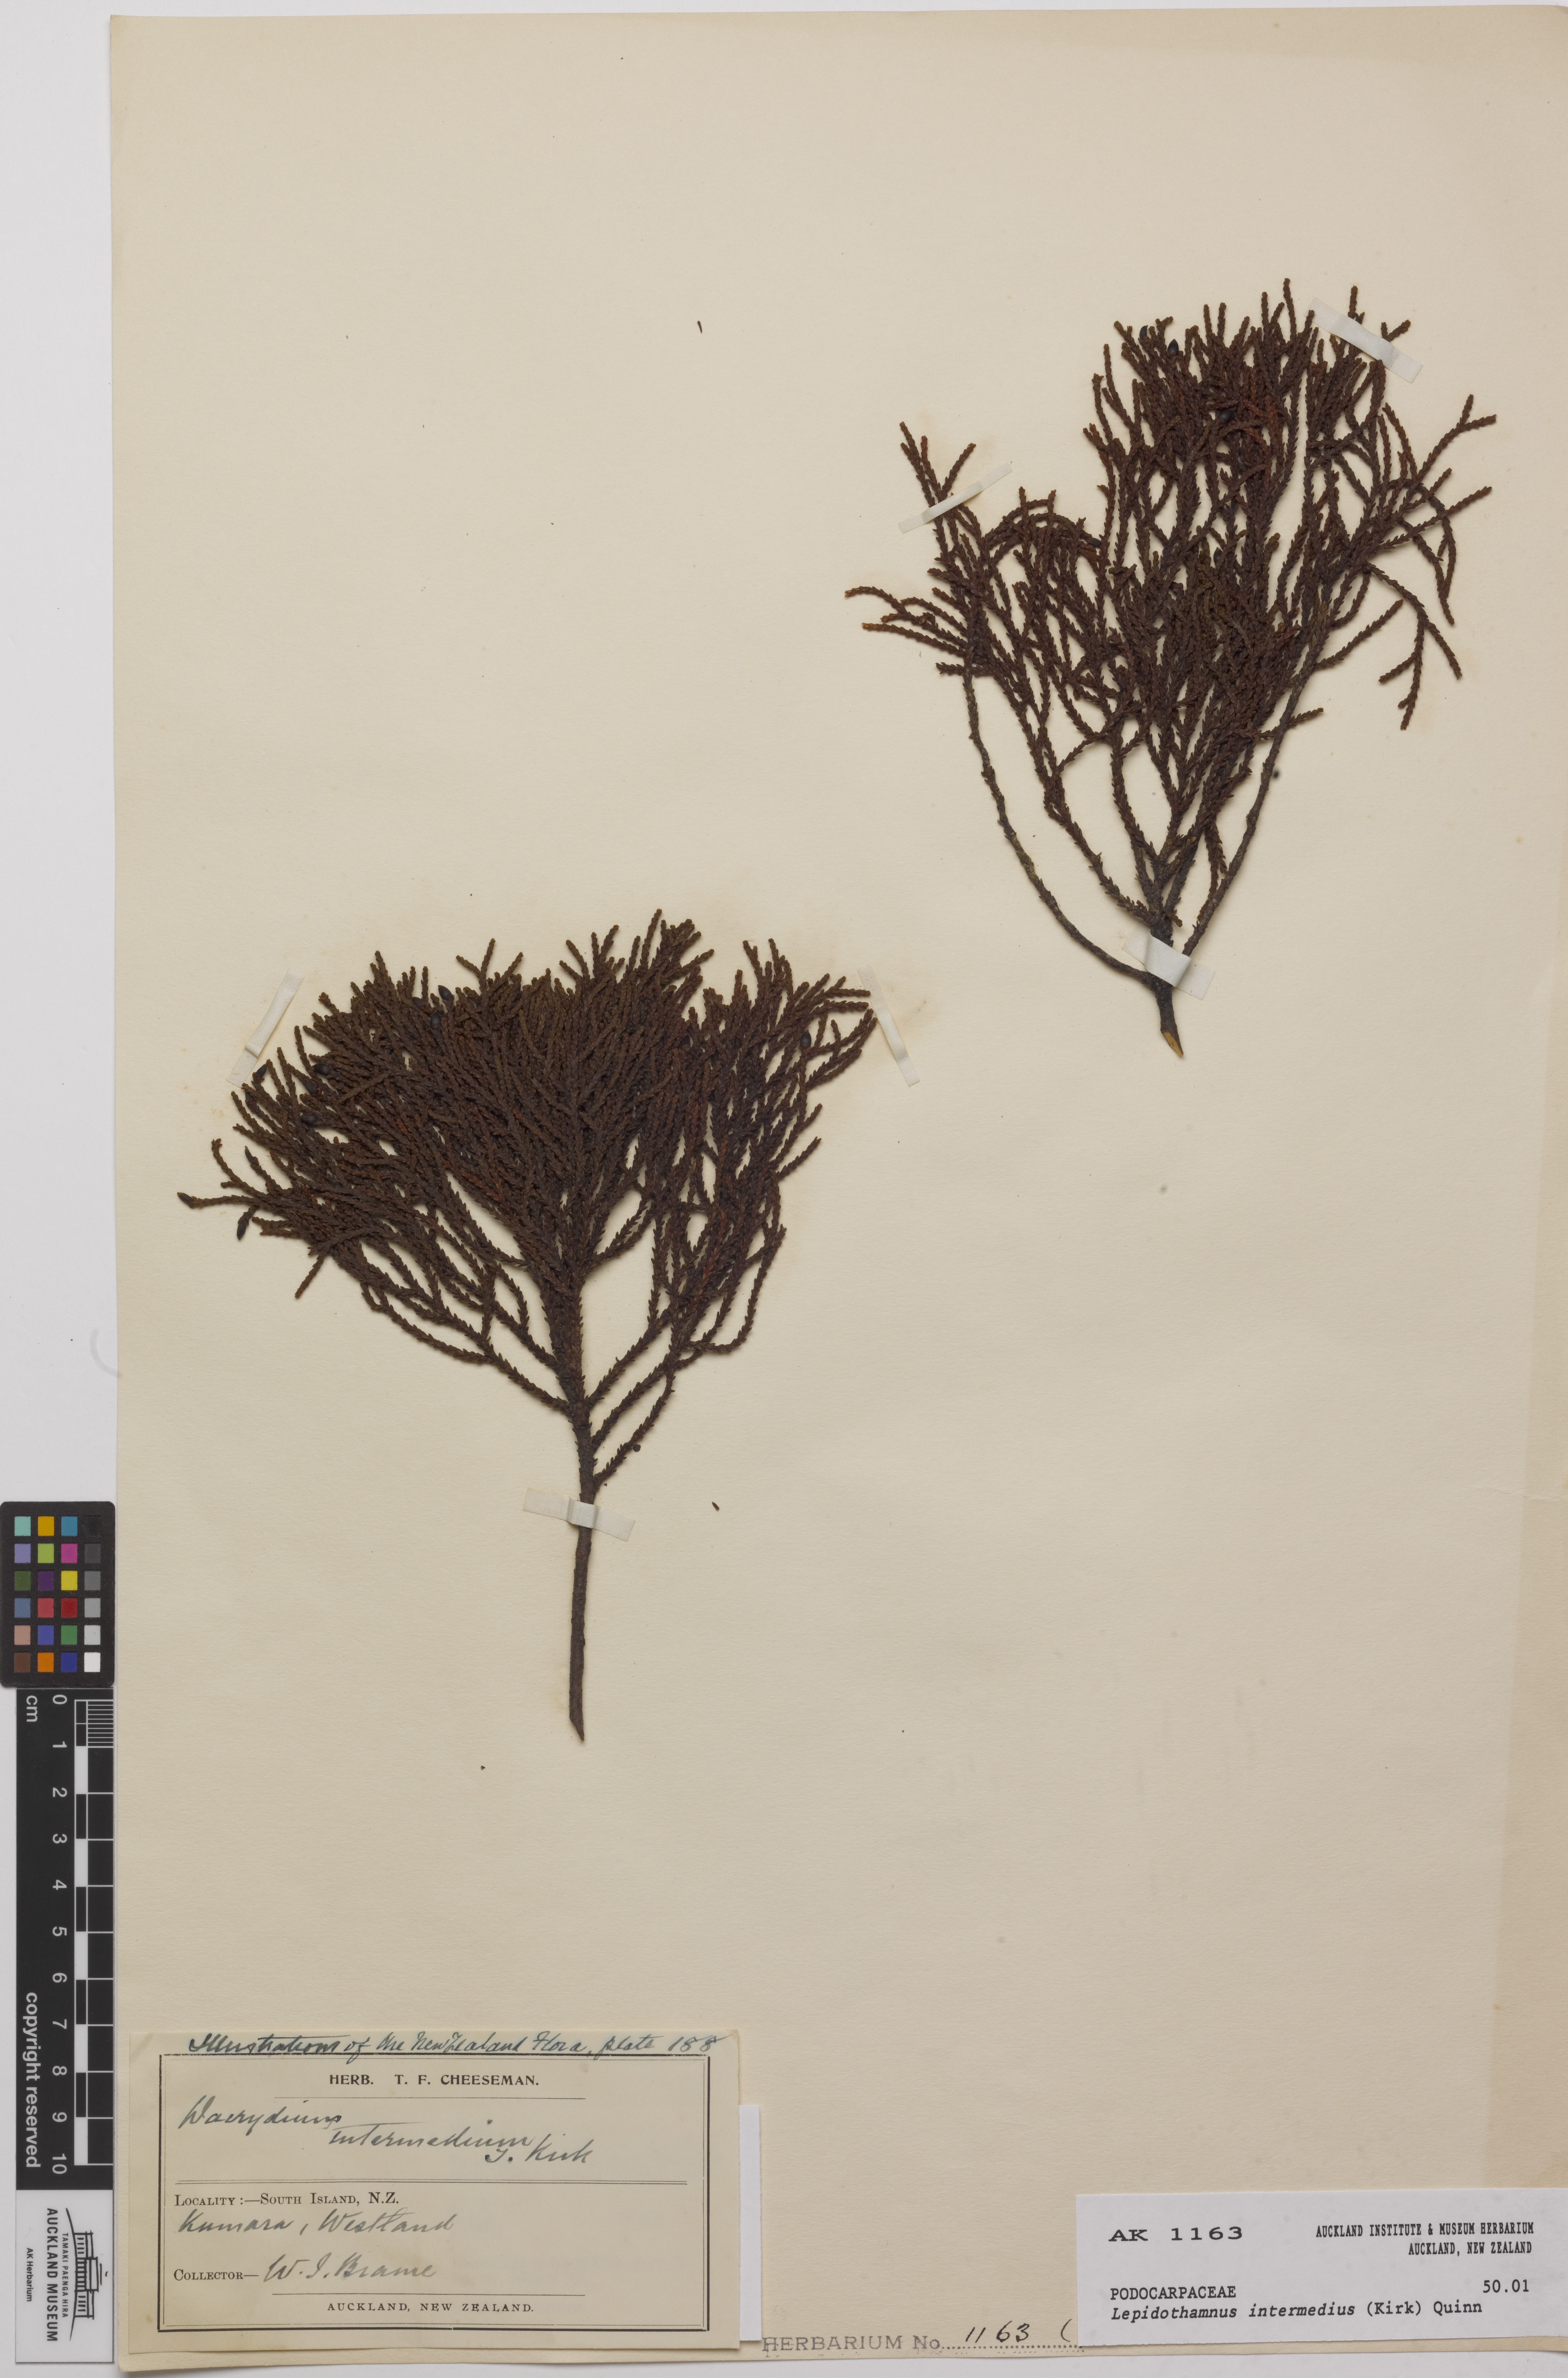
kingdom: Plantae
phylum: Tracheophyta
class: Pinopsida
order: Pinales
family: Podocarpaceae
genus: Lepidothamnus
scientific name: Lepidothamnus intermedius
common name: Yellow silver pine
